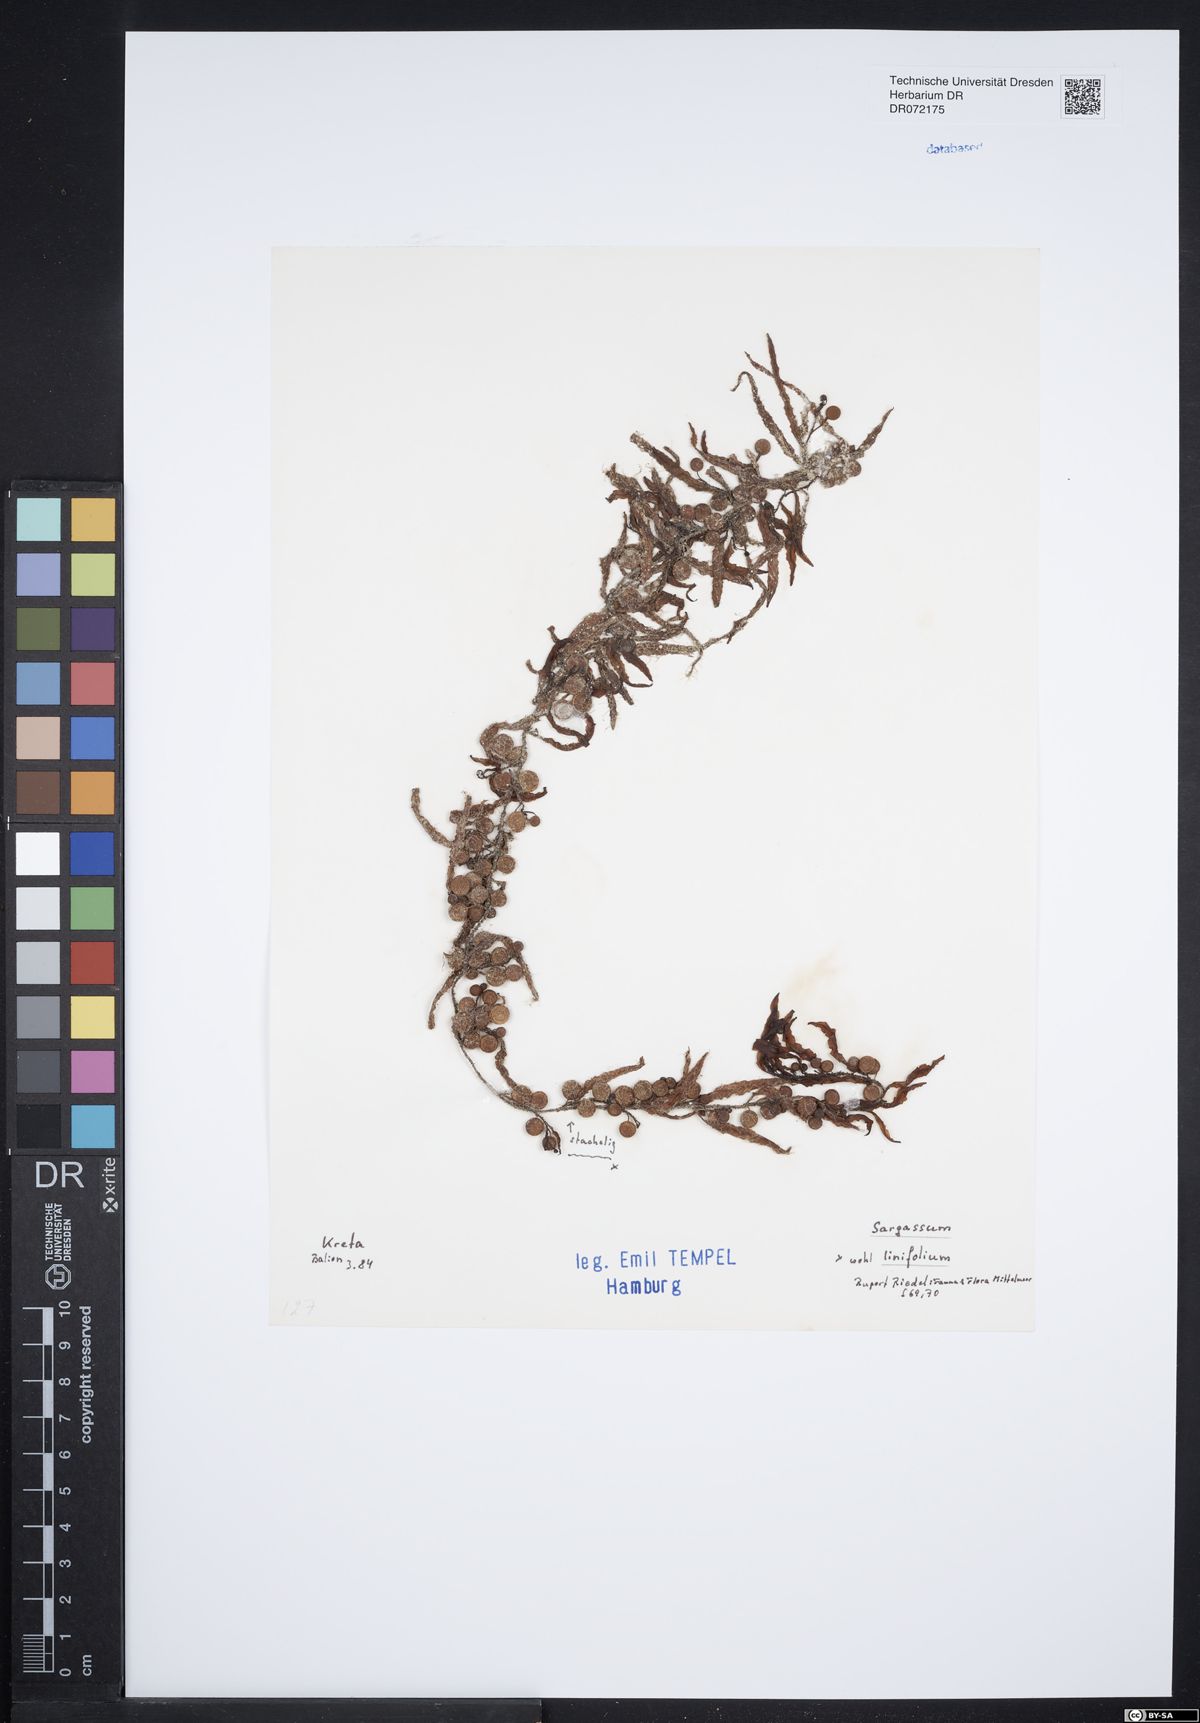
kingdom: Chromista
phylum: Ochrophyta
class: Phaeophyceae
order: Fucales
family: Sargassaceae
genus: Sargassum
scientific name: Sargassum acinarium
